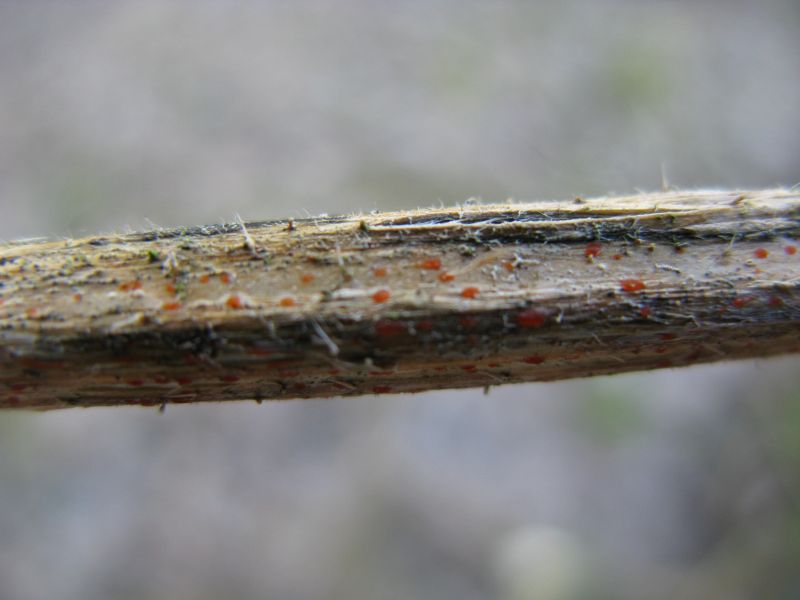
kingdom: Fungi
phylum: Ascomycota
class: Leotiomycetes
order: Helotiales
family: Calloriaceae
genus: Calloria
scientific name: Calloria urticae
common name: nælde-orangeskive
